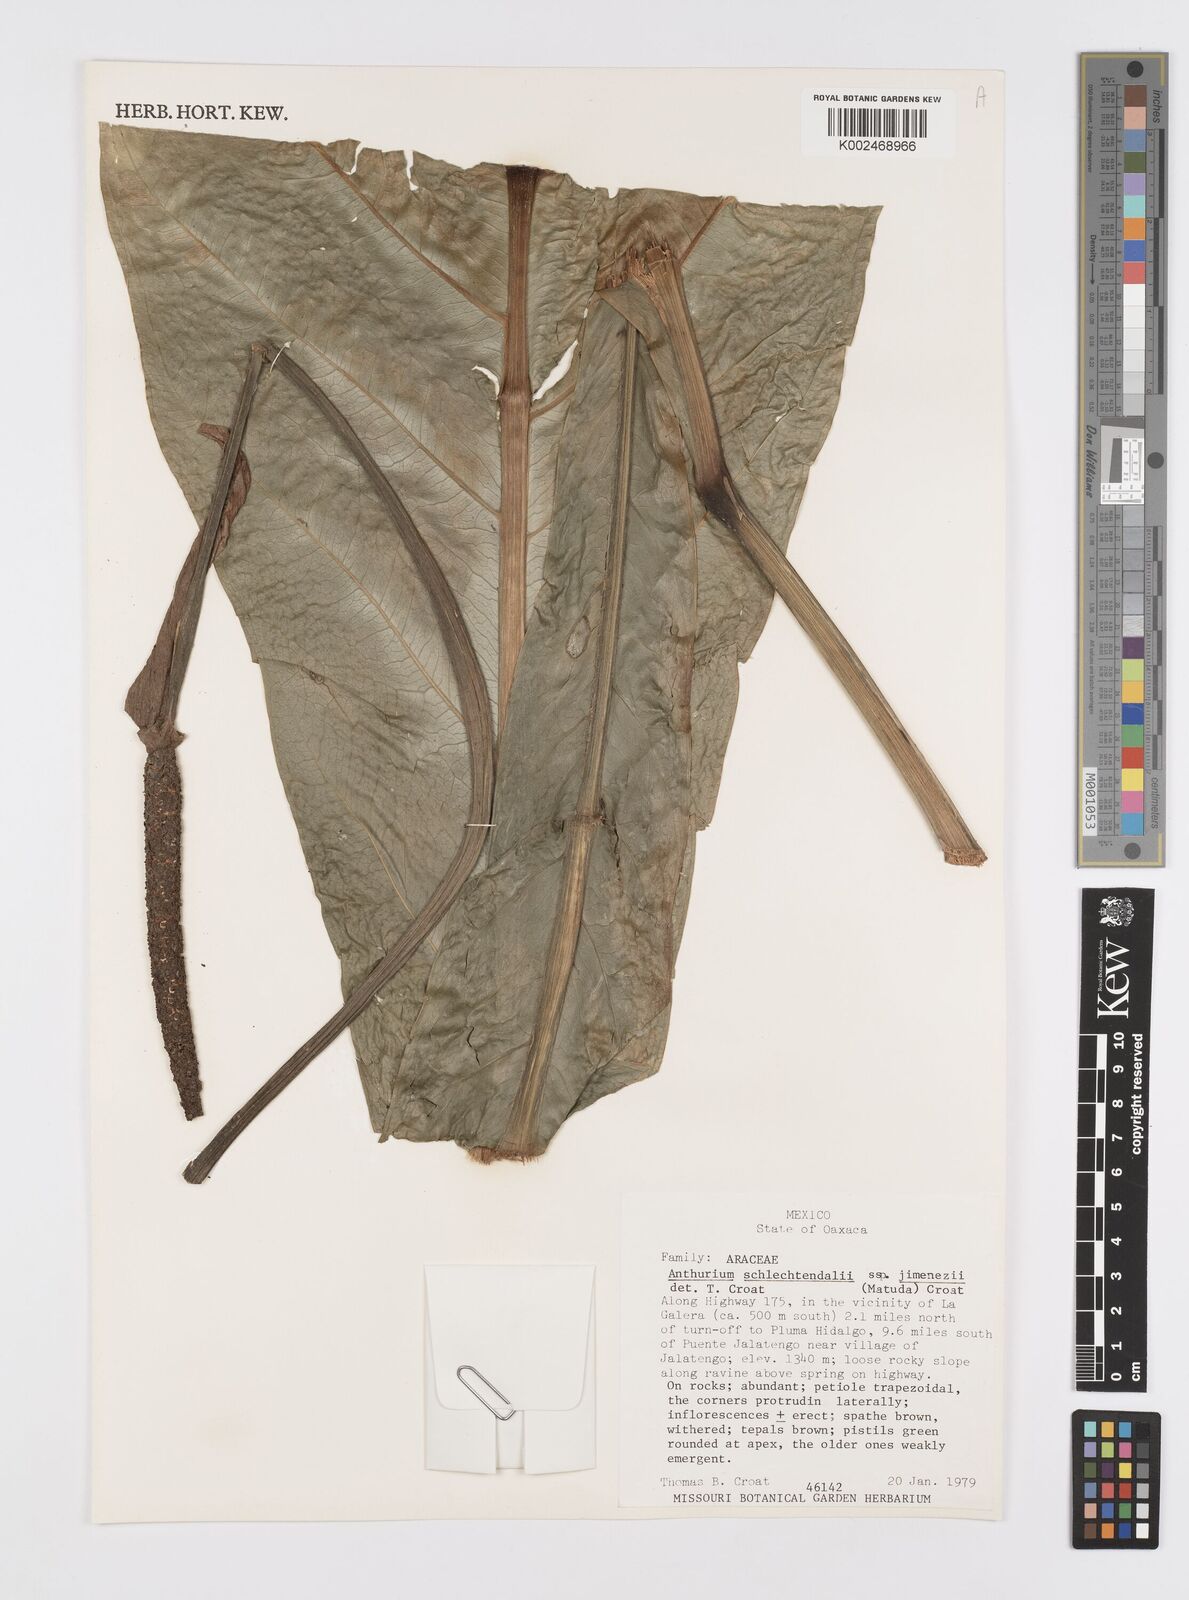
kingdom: Plantae
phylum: Tracheophyta
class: Liliopsida
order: Alismatales
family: Araceae
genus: Anthurium
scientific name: Anthurium schlechtendalii
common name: Laceleaf
